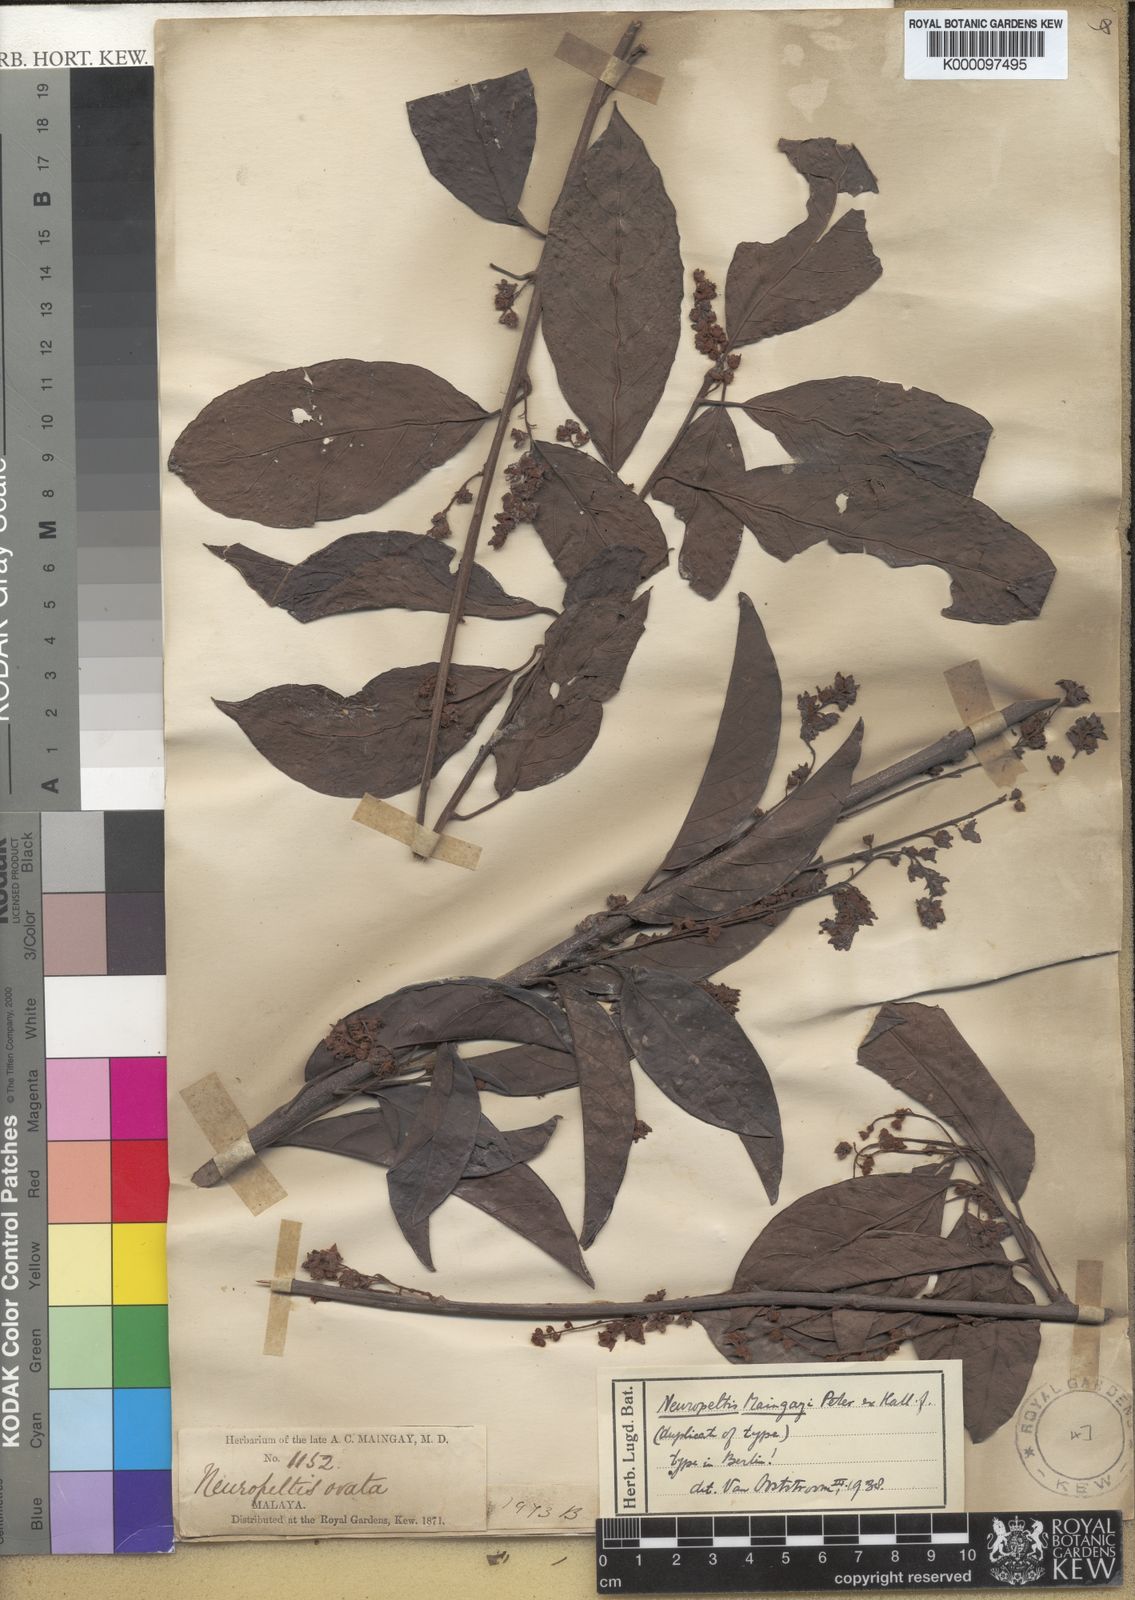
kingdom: Plantae
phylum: Tracheophyta
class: Magnoliopsida
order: Solanales
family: Convolvulaceae
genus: Neuropeltis
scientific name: Neuropeltis maingayi
